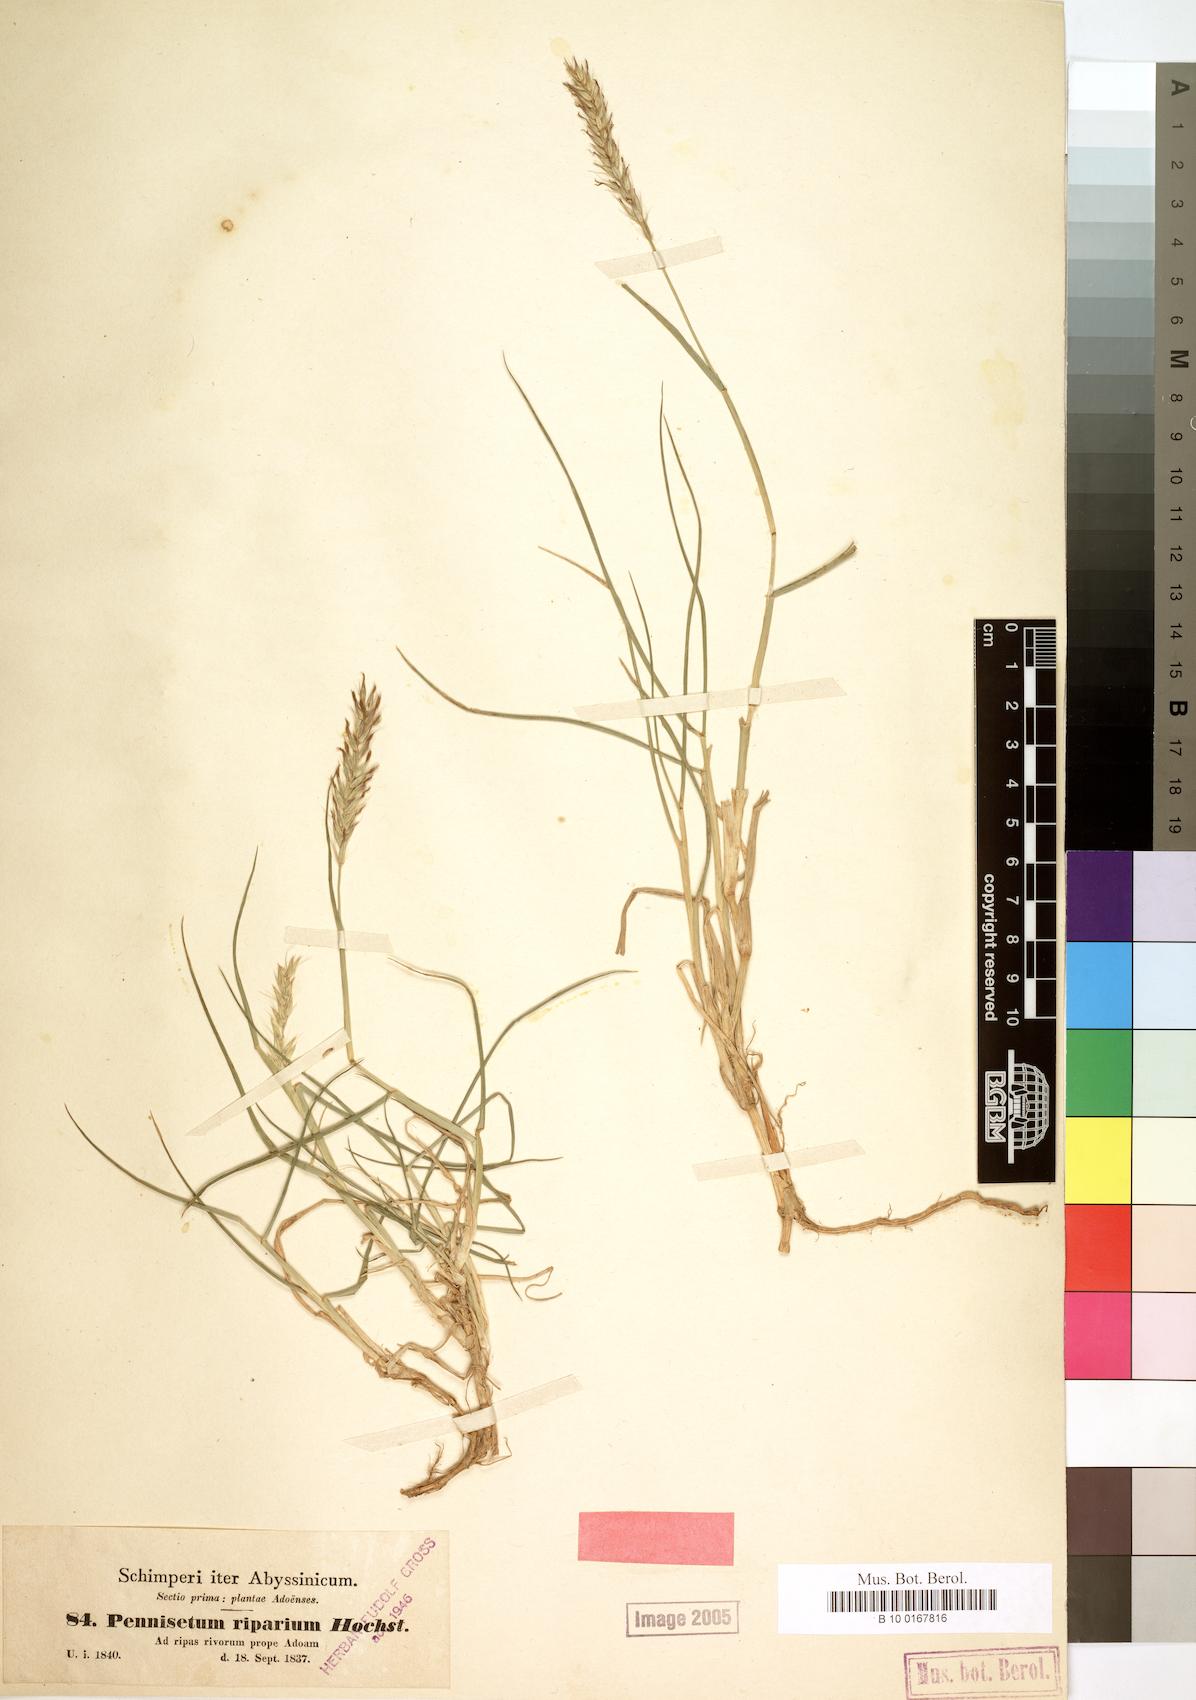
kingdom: Plantae
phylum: Tracheophyta
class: Liliopsida
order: Poales
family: Poaceae
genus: Cenchrus
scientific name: Cenchrus riparius
